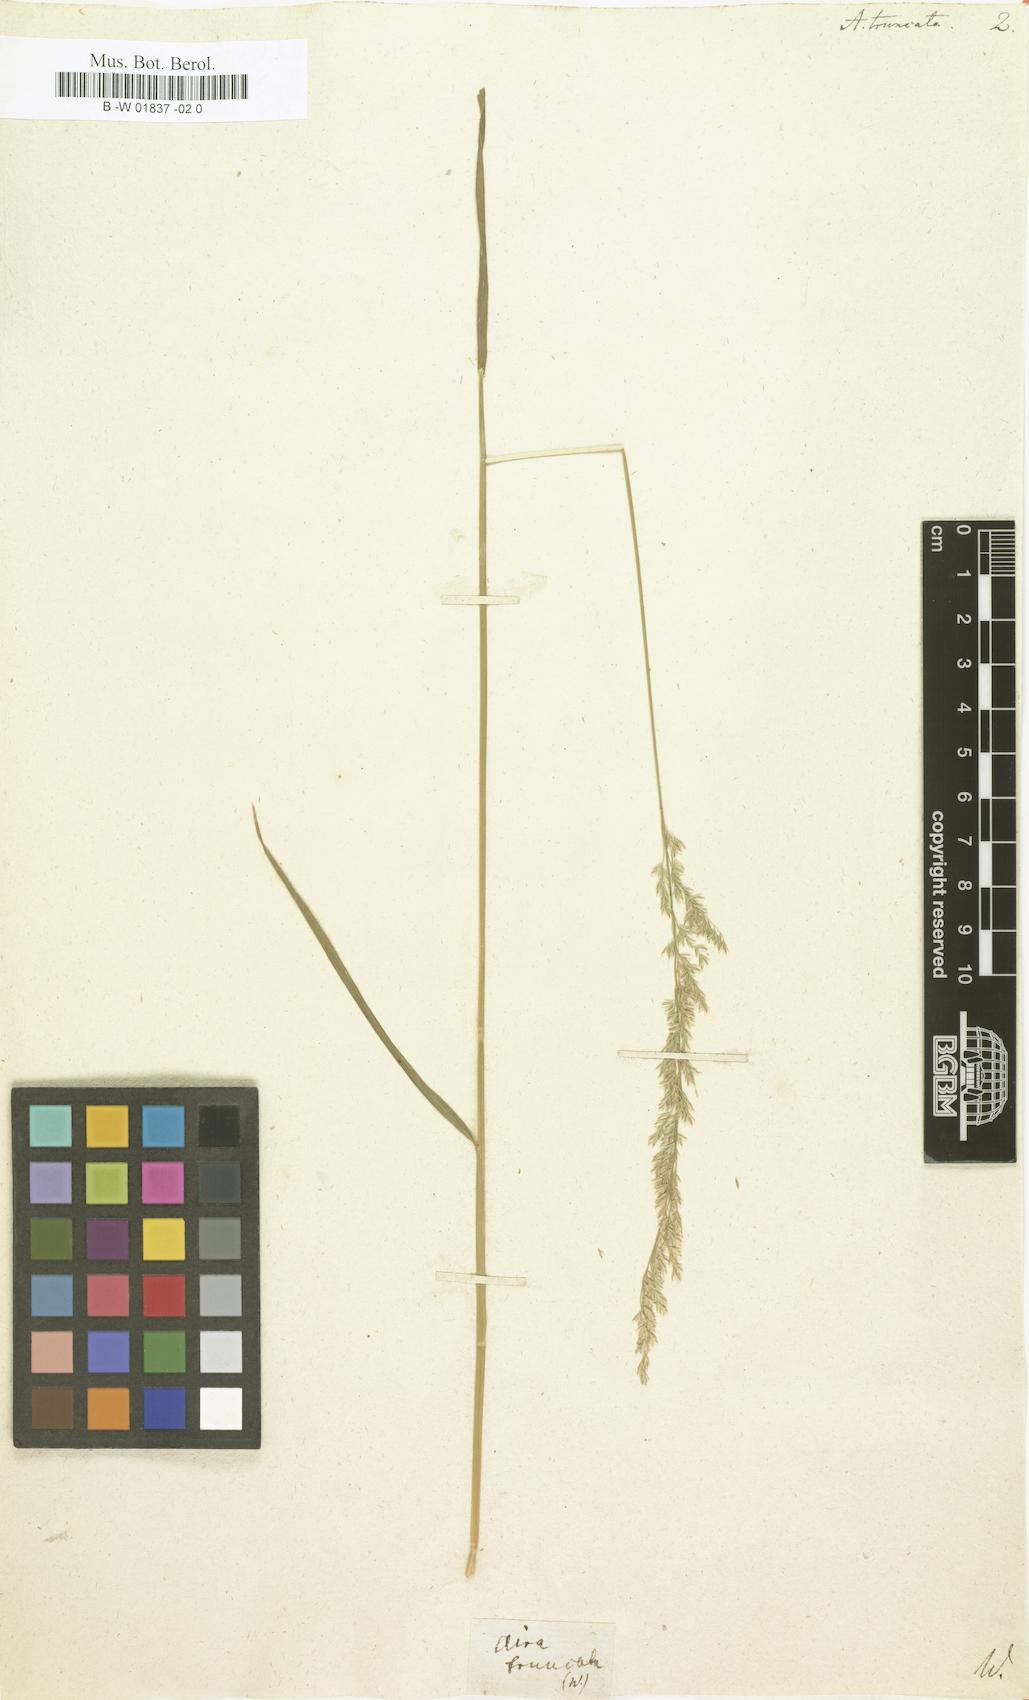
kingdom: Plantae
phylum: Tracheophyta
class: Liliopsida
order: Poales
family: Poaceae
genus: Sphenopholis
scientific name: Sphenopholis obtusata
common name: Prairie grass
